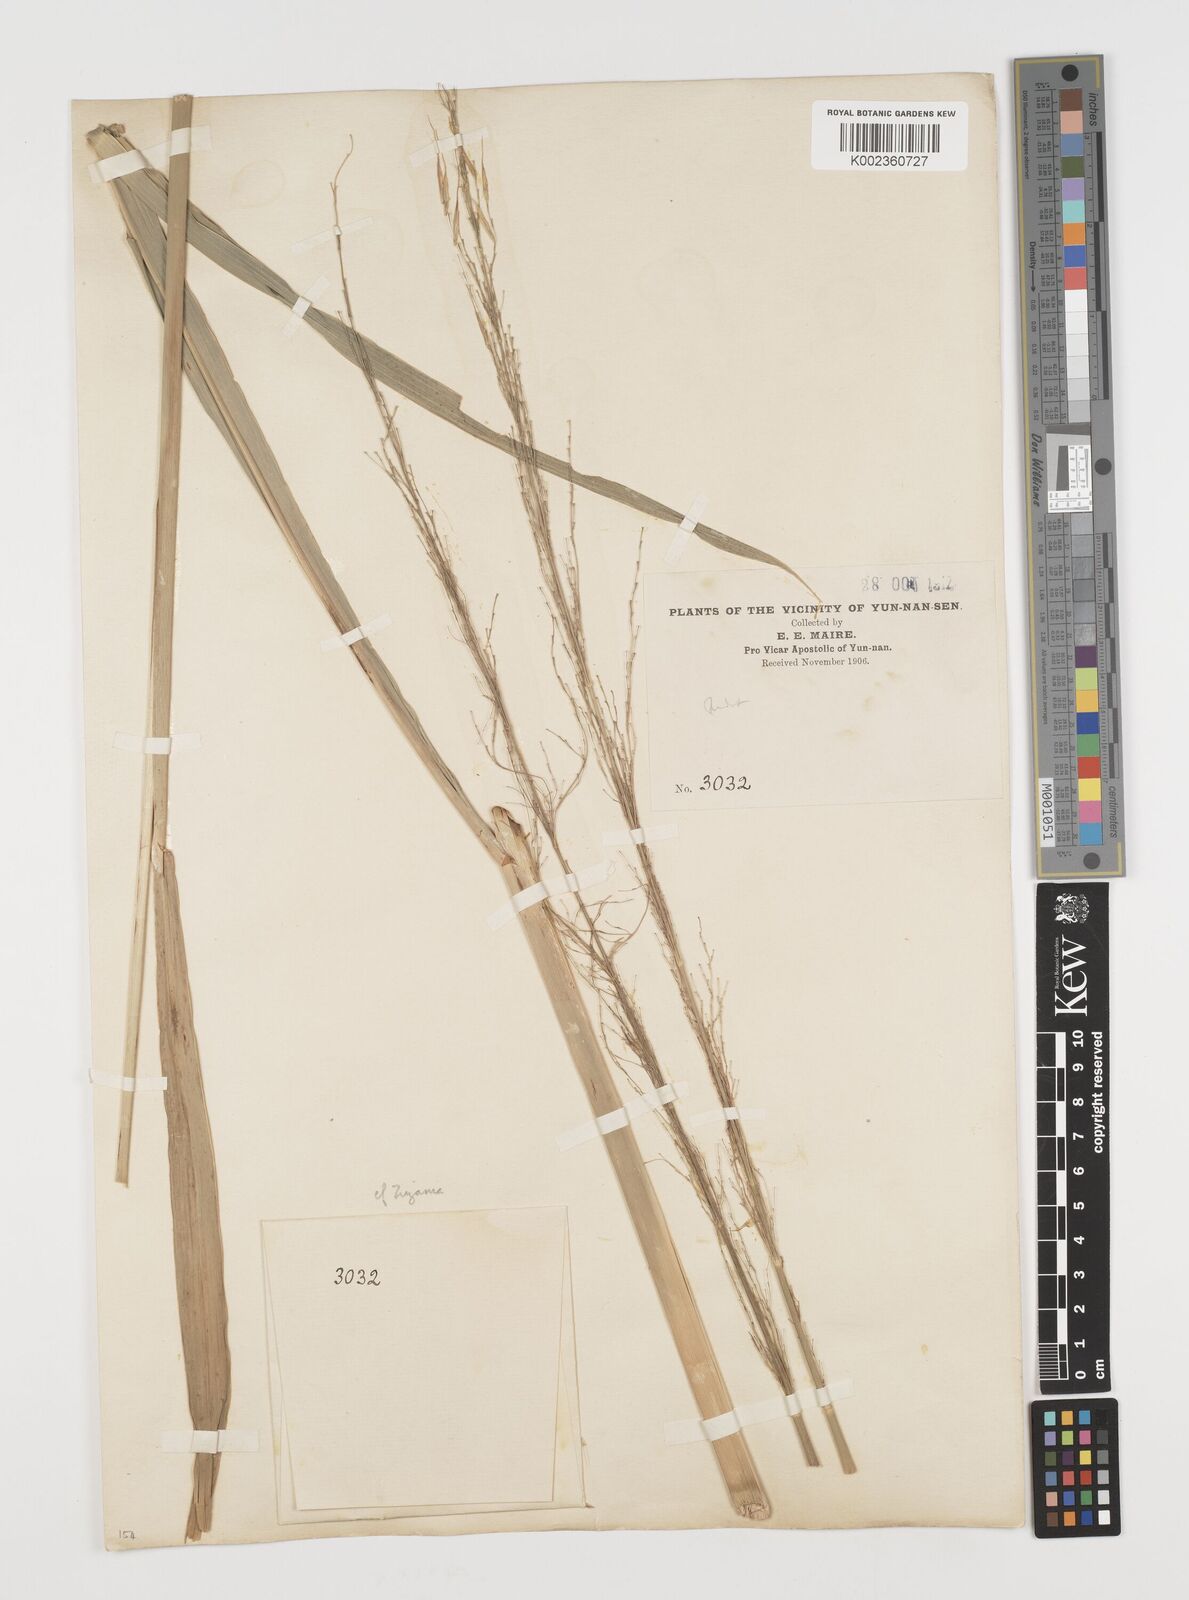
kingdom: Plantae
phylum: Tracheophyta
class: Liliopsida
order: Poales
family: Poaceae
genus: Zizania
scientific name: Zizania latifolia
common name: Manchurian wildrice
